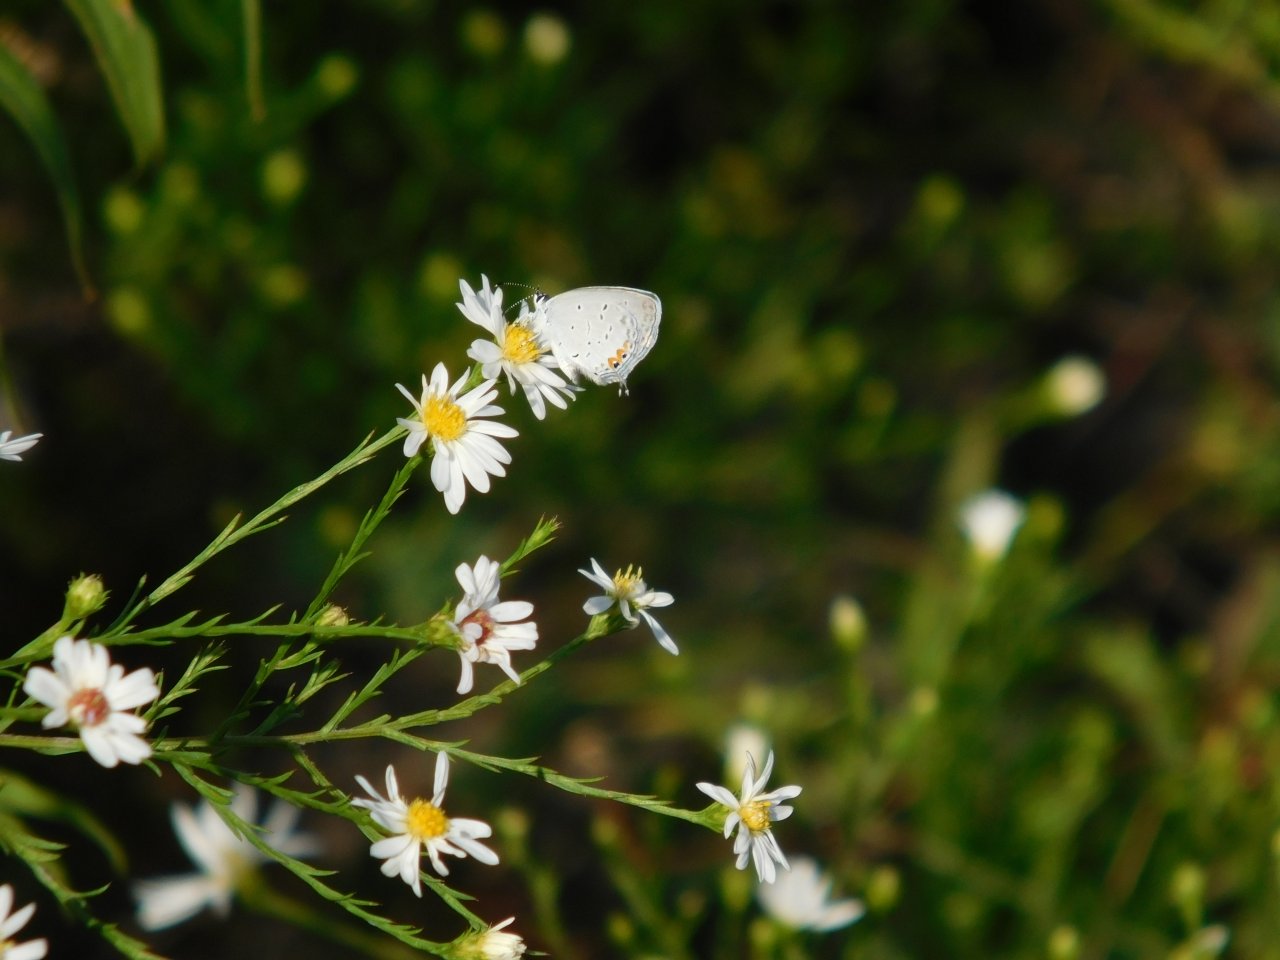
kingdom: Animalia
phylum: Arthropoda
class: Insecta
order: Lepidoptera
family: Lycaenidae
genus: Elkalyce
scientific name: Elkalyce comyntas
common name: Eastern Tailed-Blue
